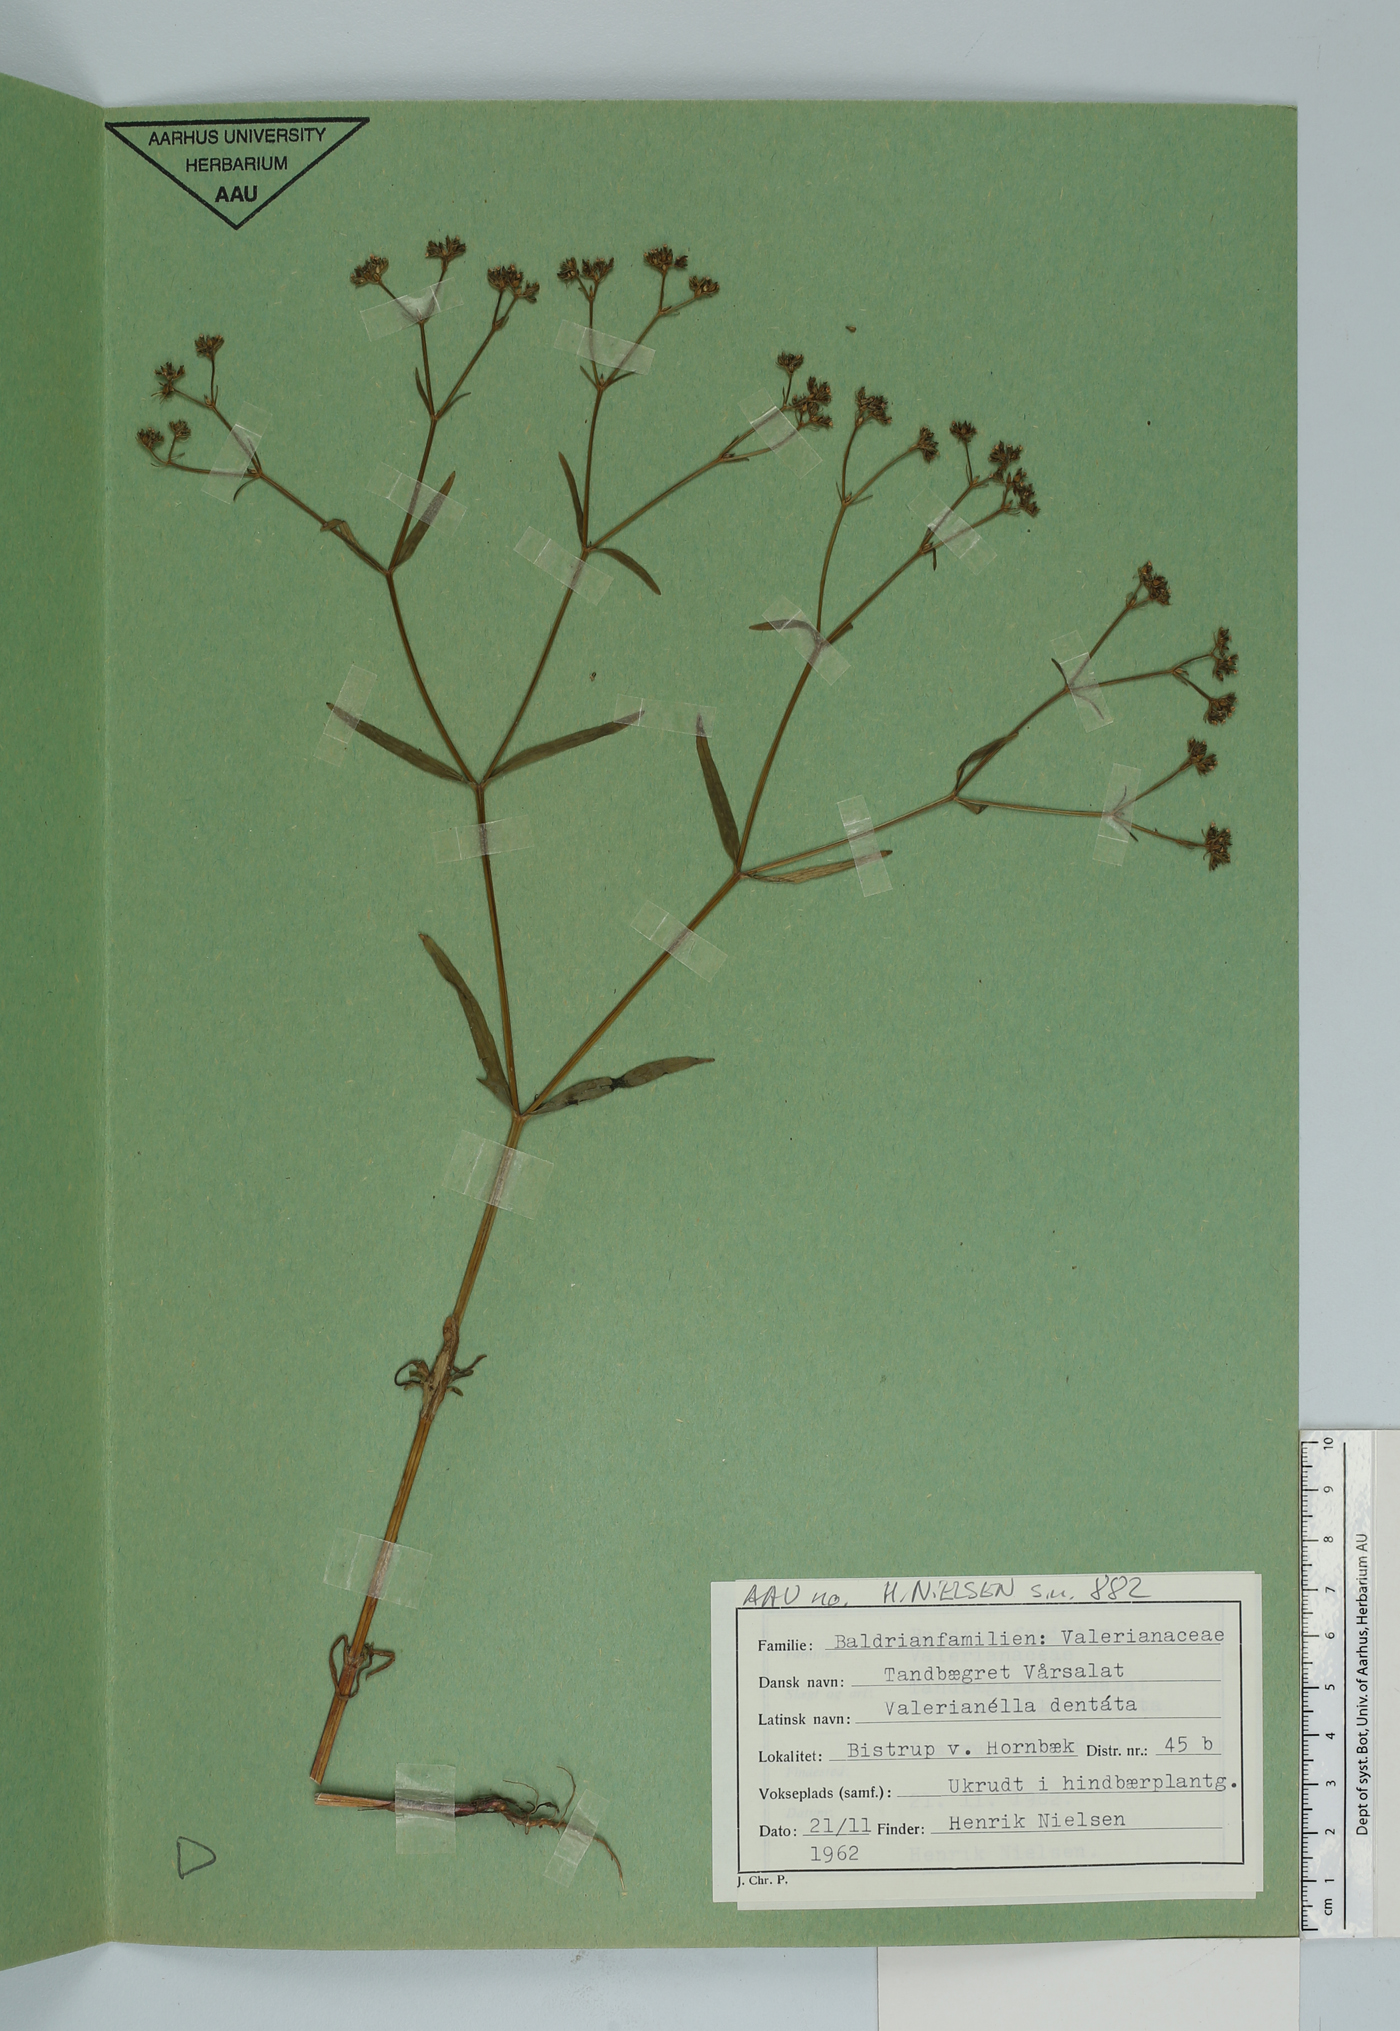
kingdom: Plantae
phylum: Tracheophyta
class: Magnoliopsida
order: Dipsacales
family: Caprifoliaceae
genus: Valerianella
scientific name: Valerianella dentata
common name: Narrow-fruited cornsalad
